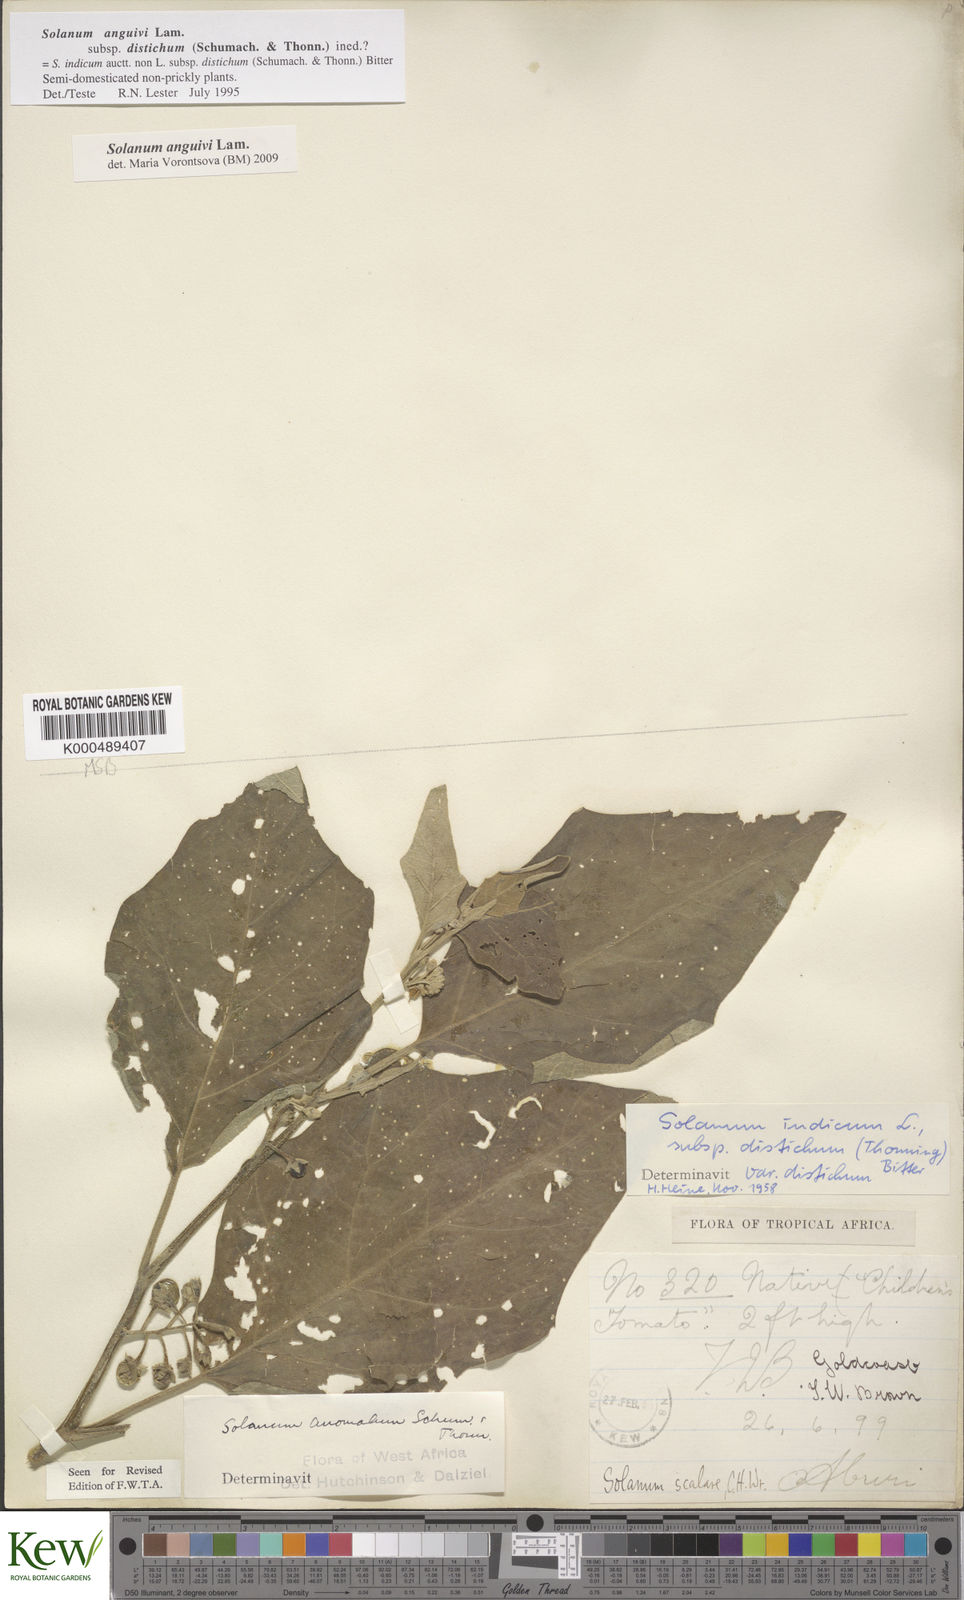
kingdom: Plantae
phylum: Tracheophyta
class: Magnoliopsida
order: Solanales
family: Solanaceae
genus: Solanum
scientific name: Solanum anguivi
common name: Forest bitterberry
